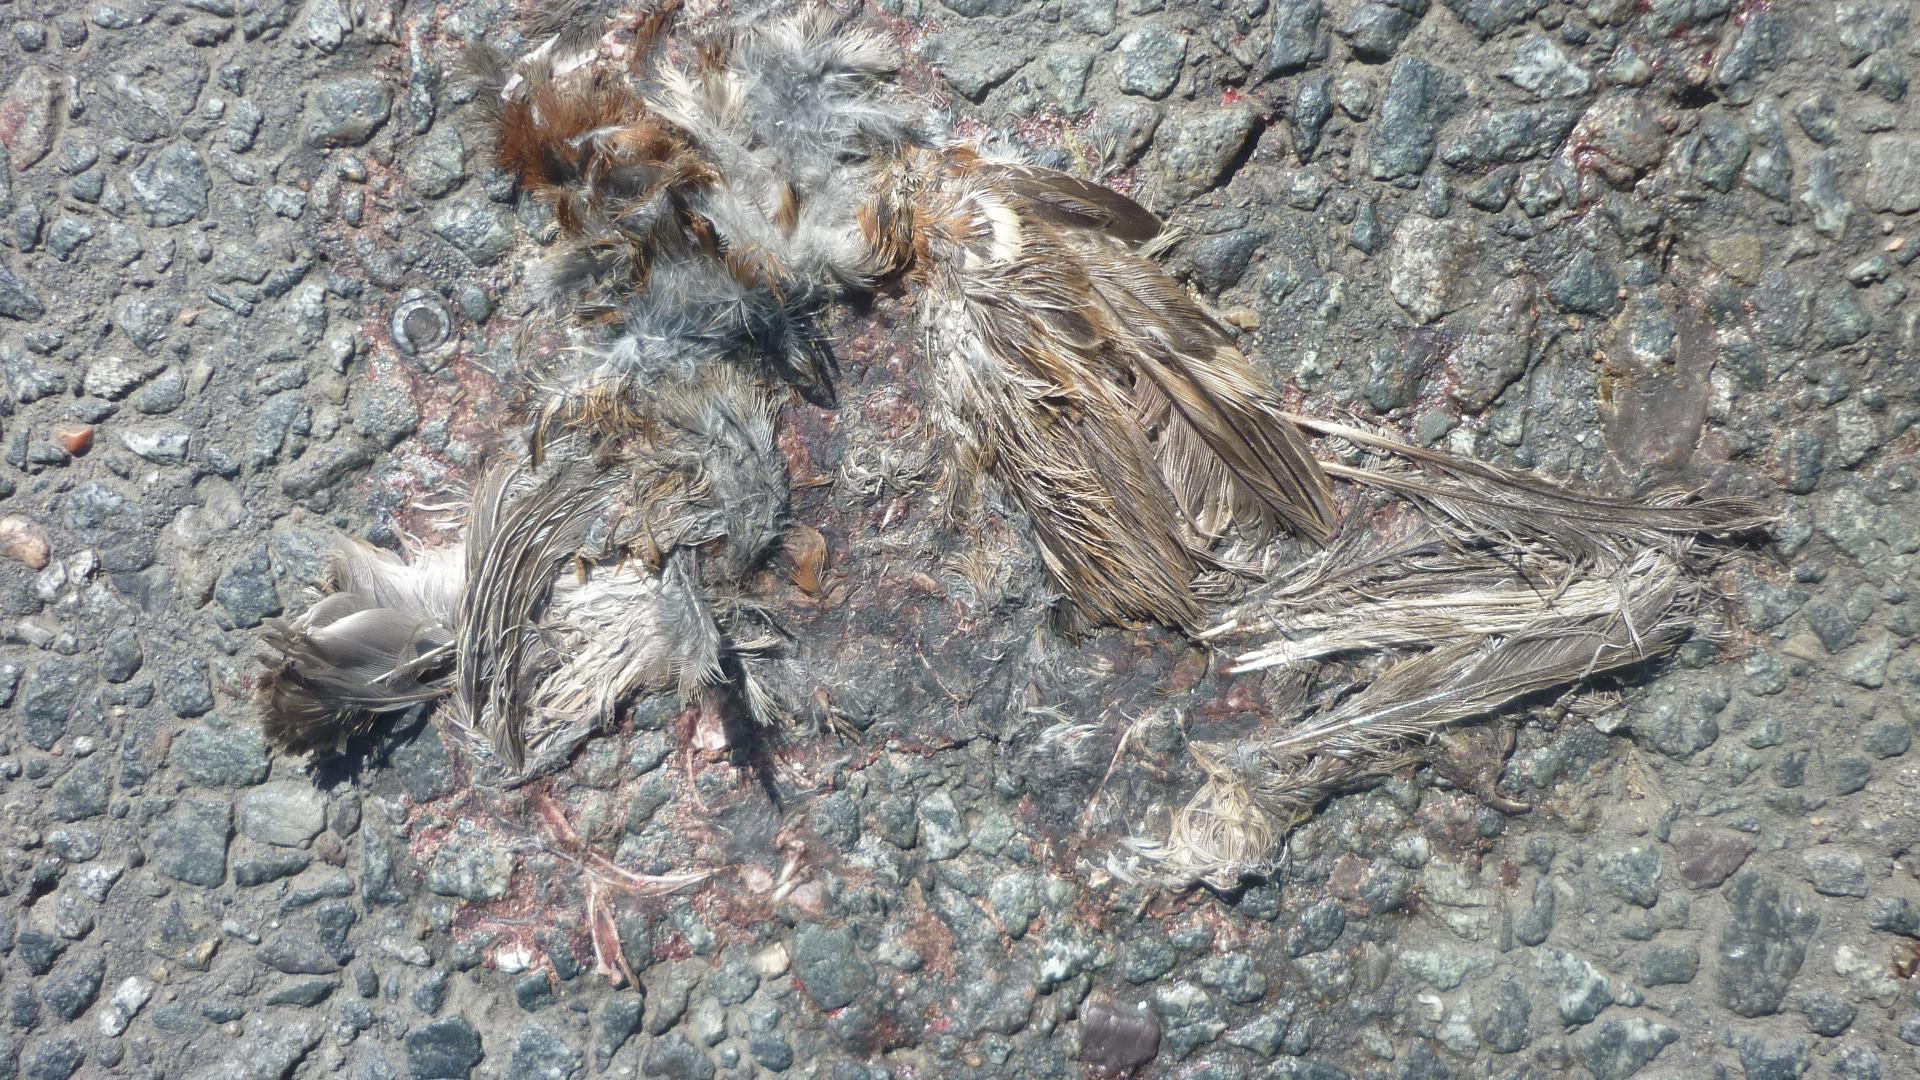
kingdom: Animalia
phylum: Chordata
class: Aves
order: Passeriformes
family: Passeridae
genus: Passer
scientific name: Passer
